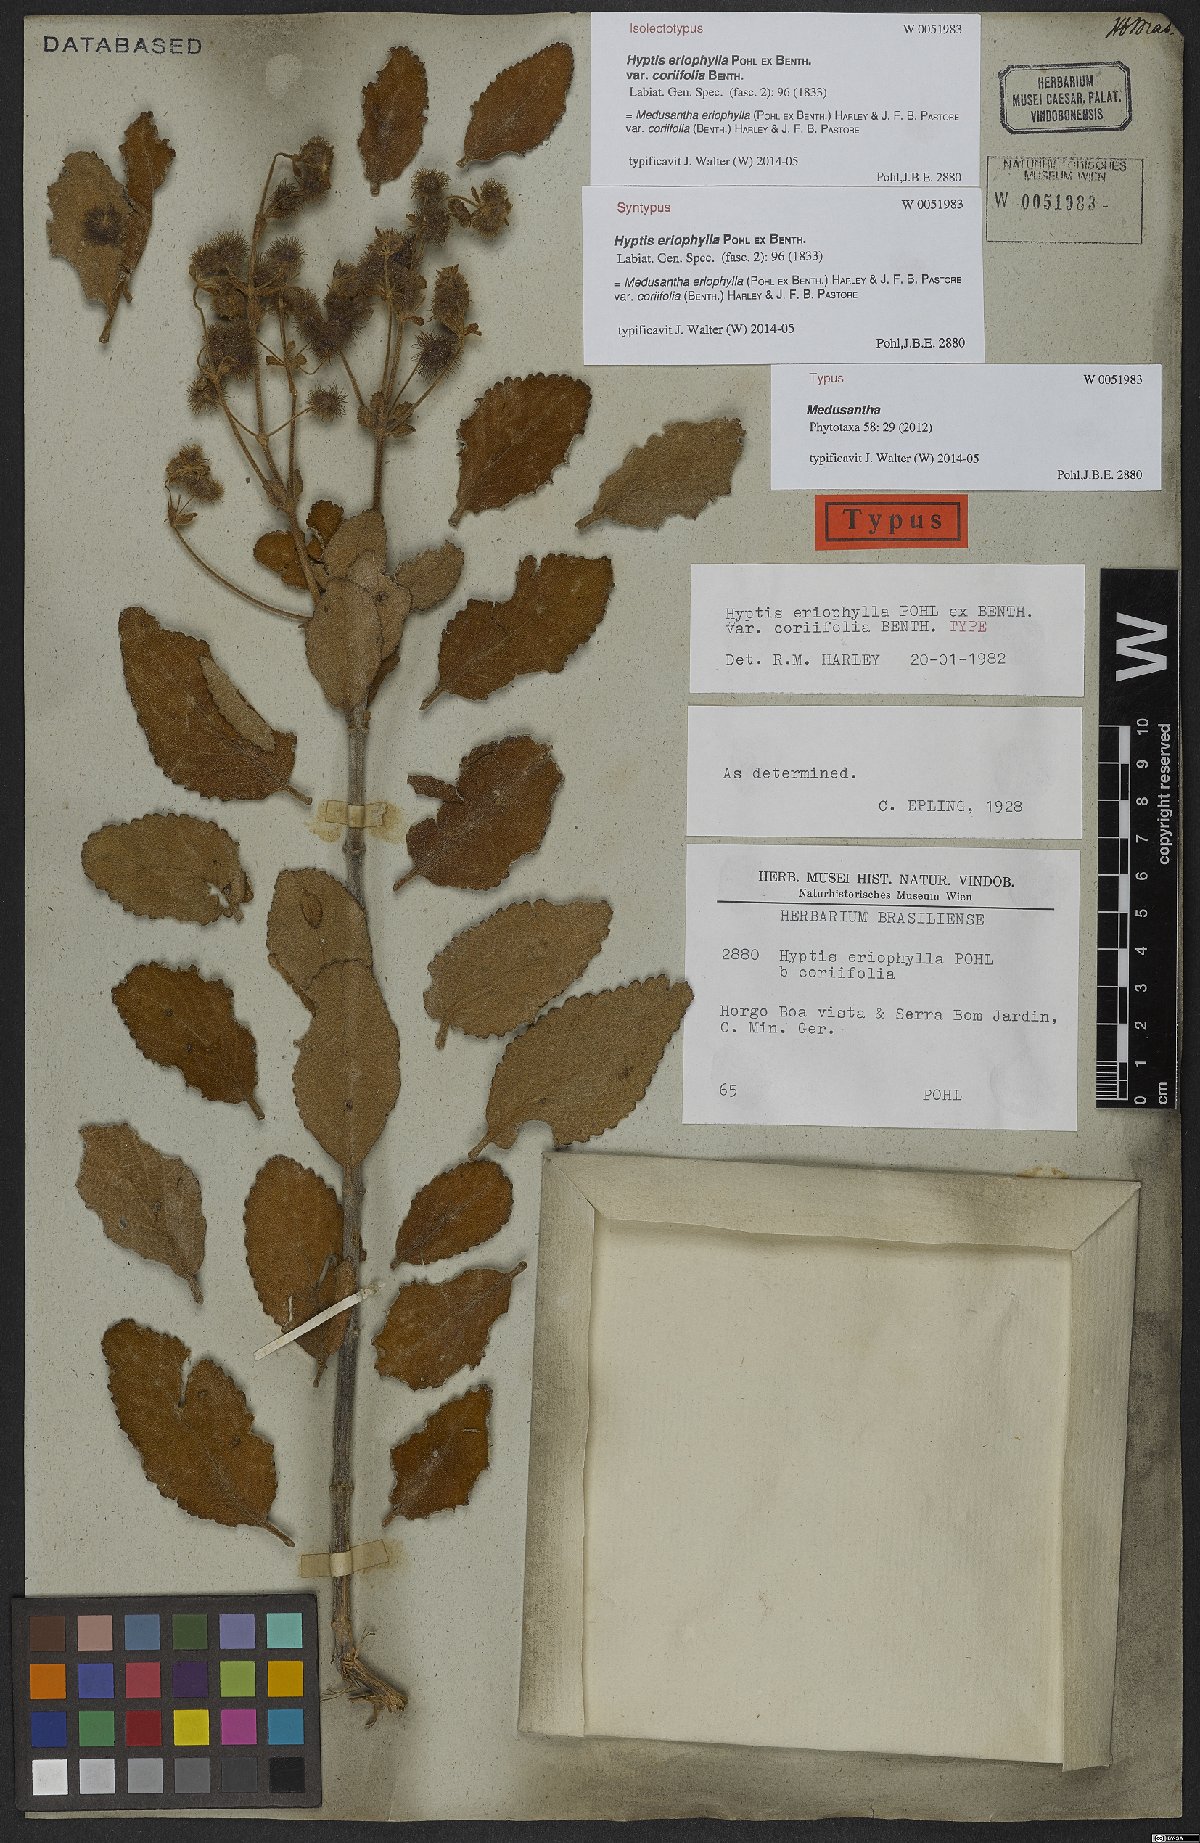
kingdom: Plantae
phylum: Tracheophyta
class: Magnoliopsida
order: Lamiales
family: Lamiaceae
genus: Medusantha
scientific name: Medusantha eriophylla
